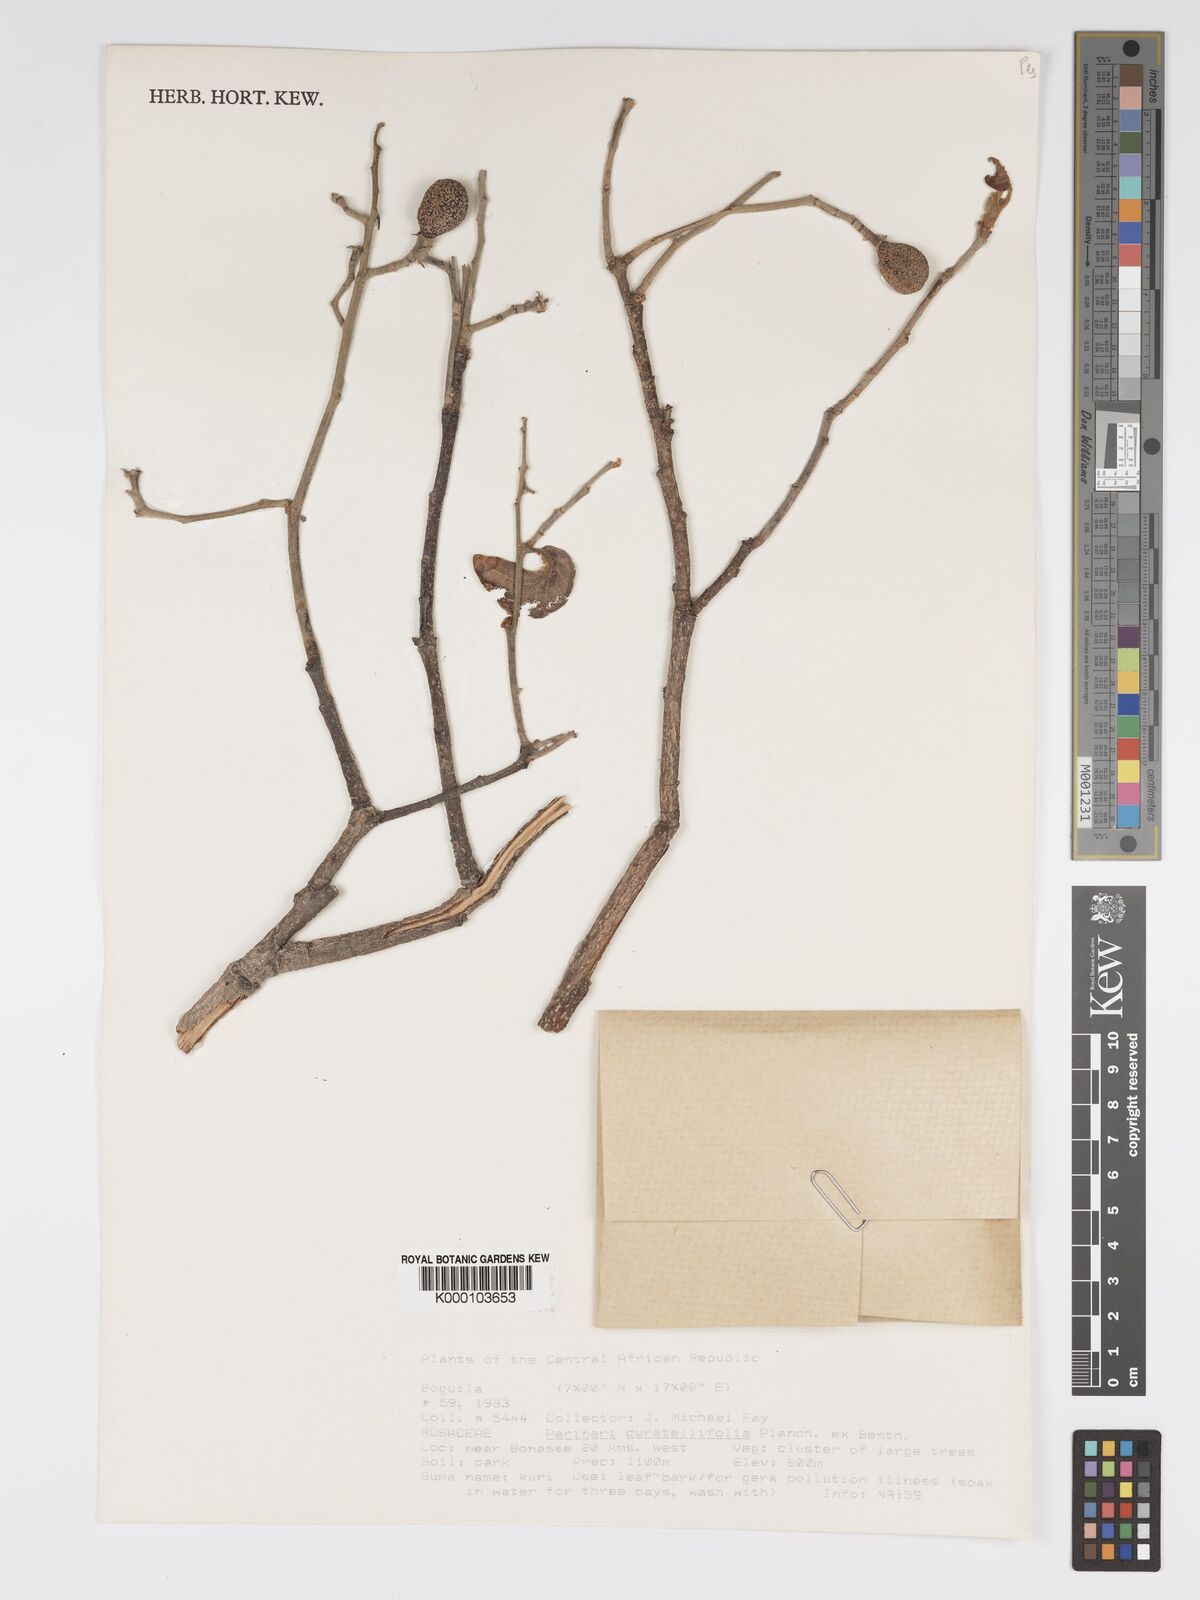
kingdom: Plantae
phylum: Tracheophyta
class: Magnoliopsida
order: Malpighiales
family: Chrysobalanaceae
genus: Parinari
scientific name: Parinari curatellifolia
